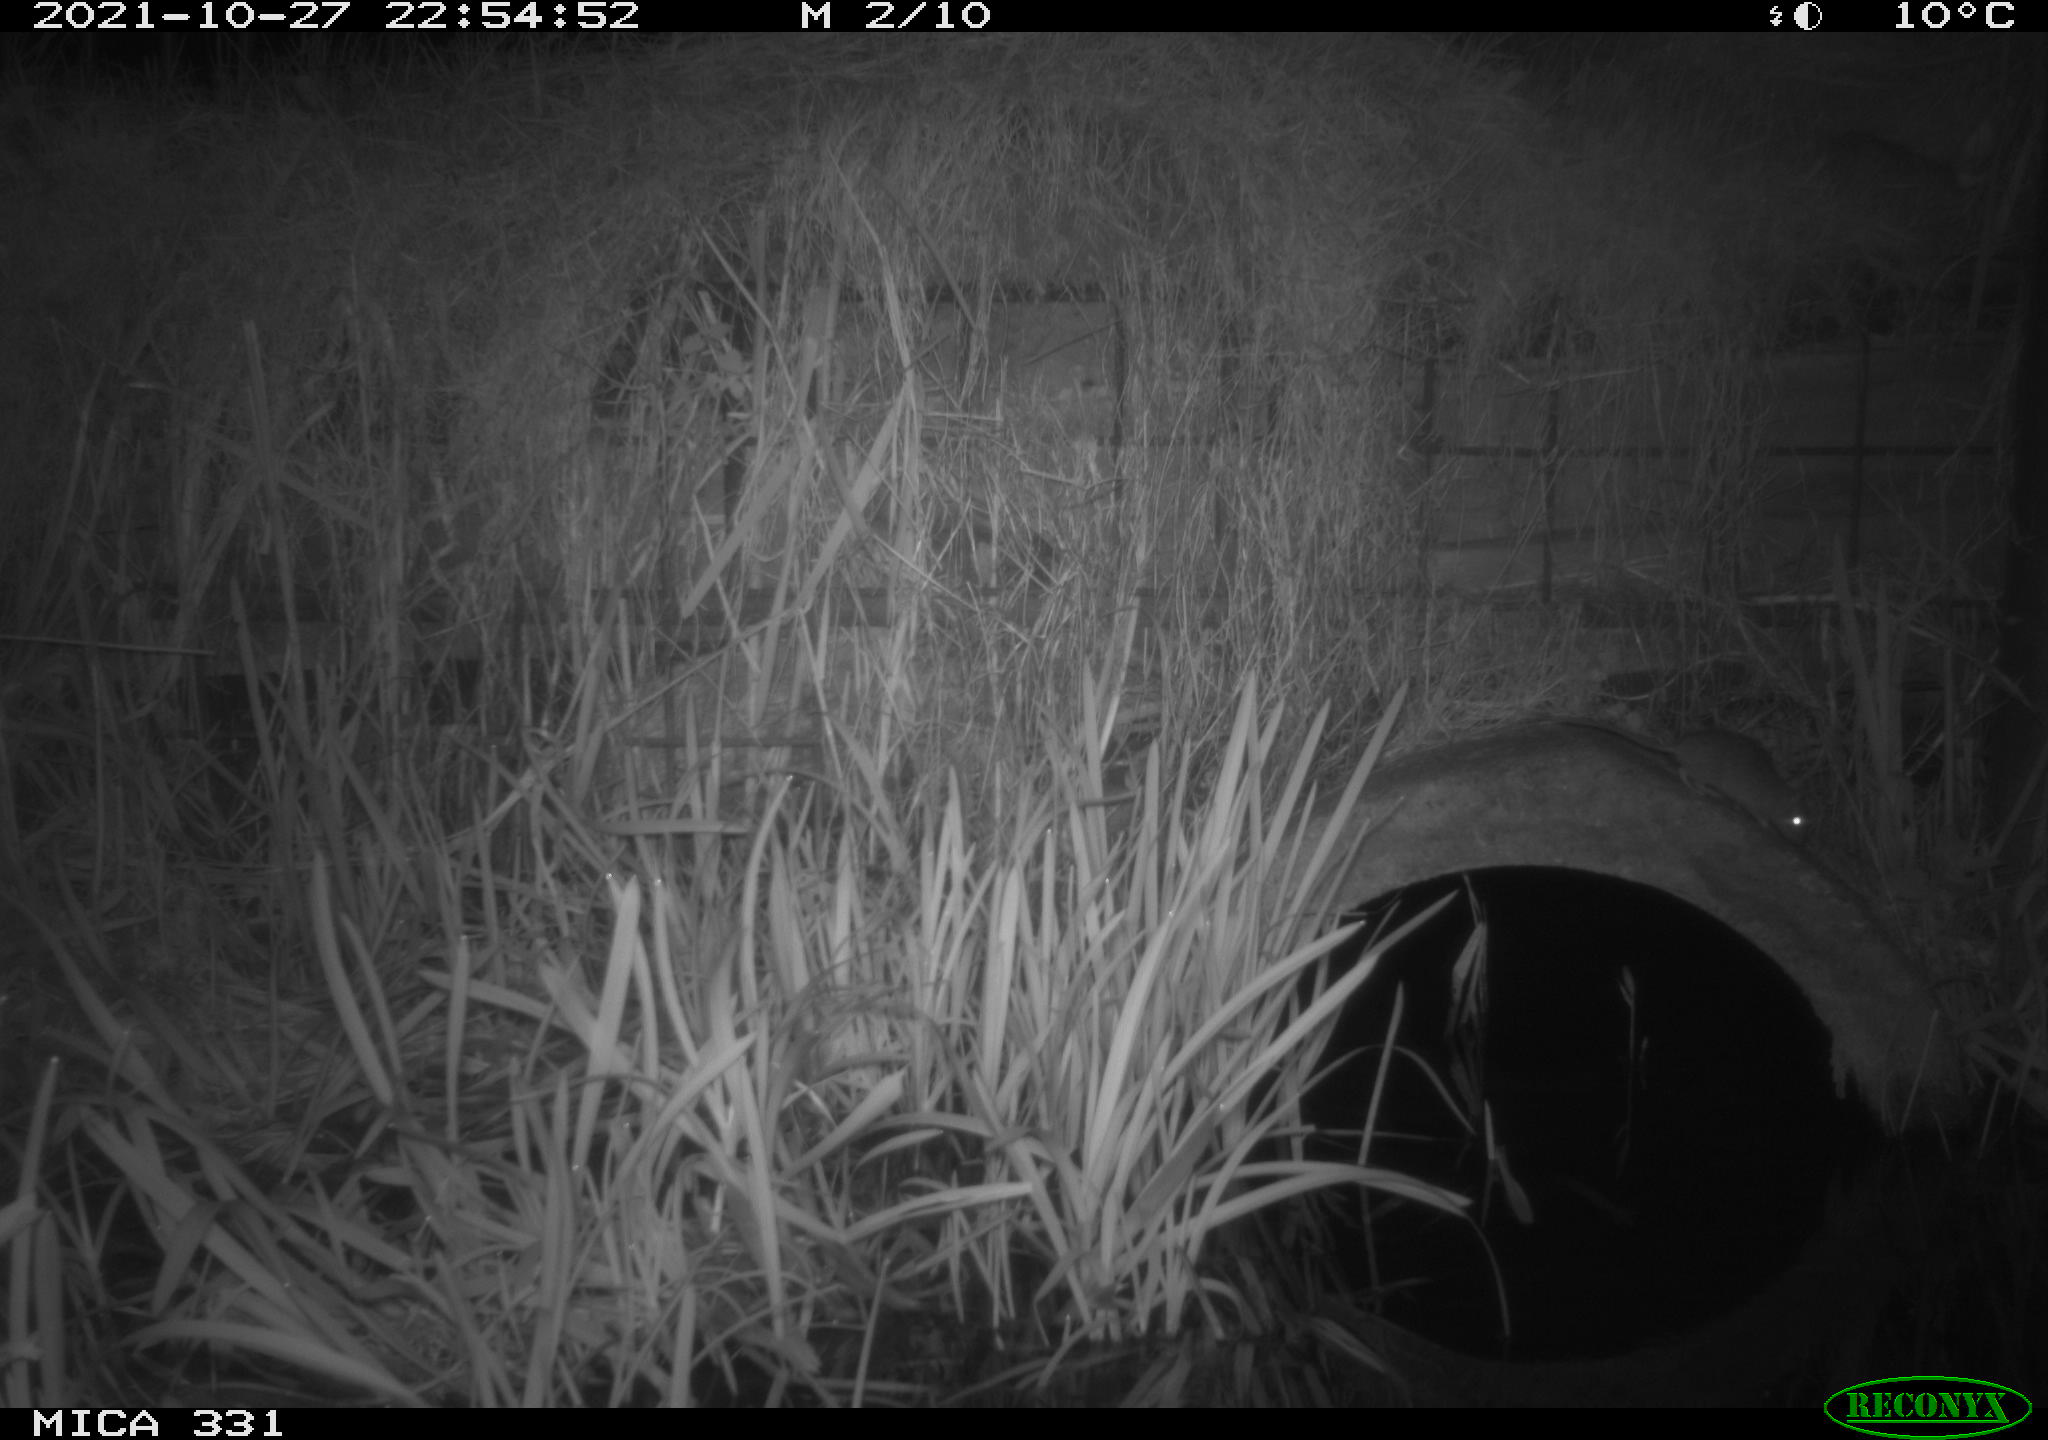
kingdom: Animalia
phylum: Chordata
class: Mammalia
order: Rodentia
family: Muridae
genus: Rattus
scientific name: Rattus norvegicus
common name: Brown rat
